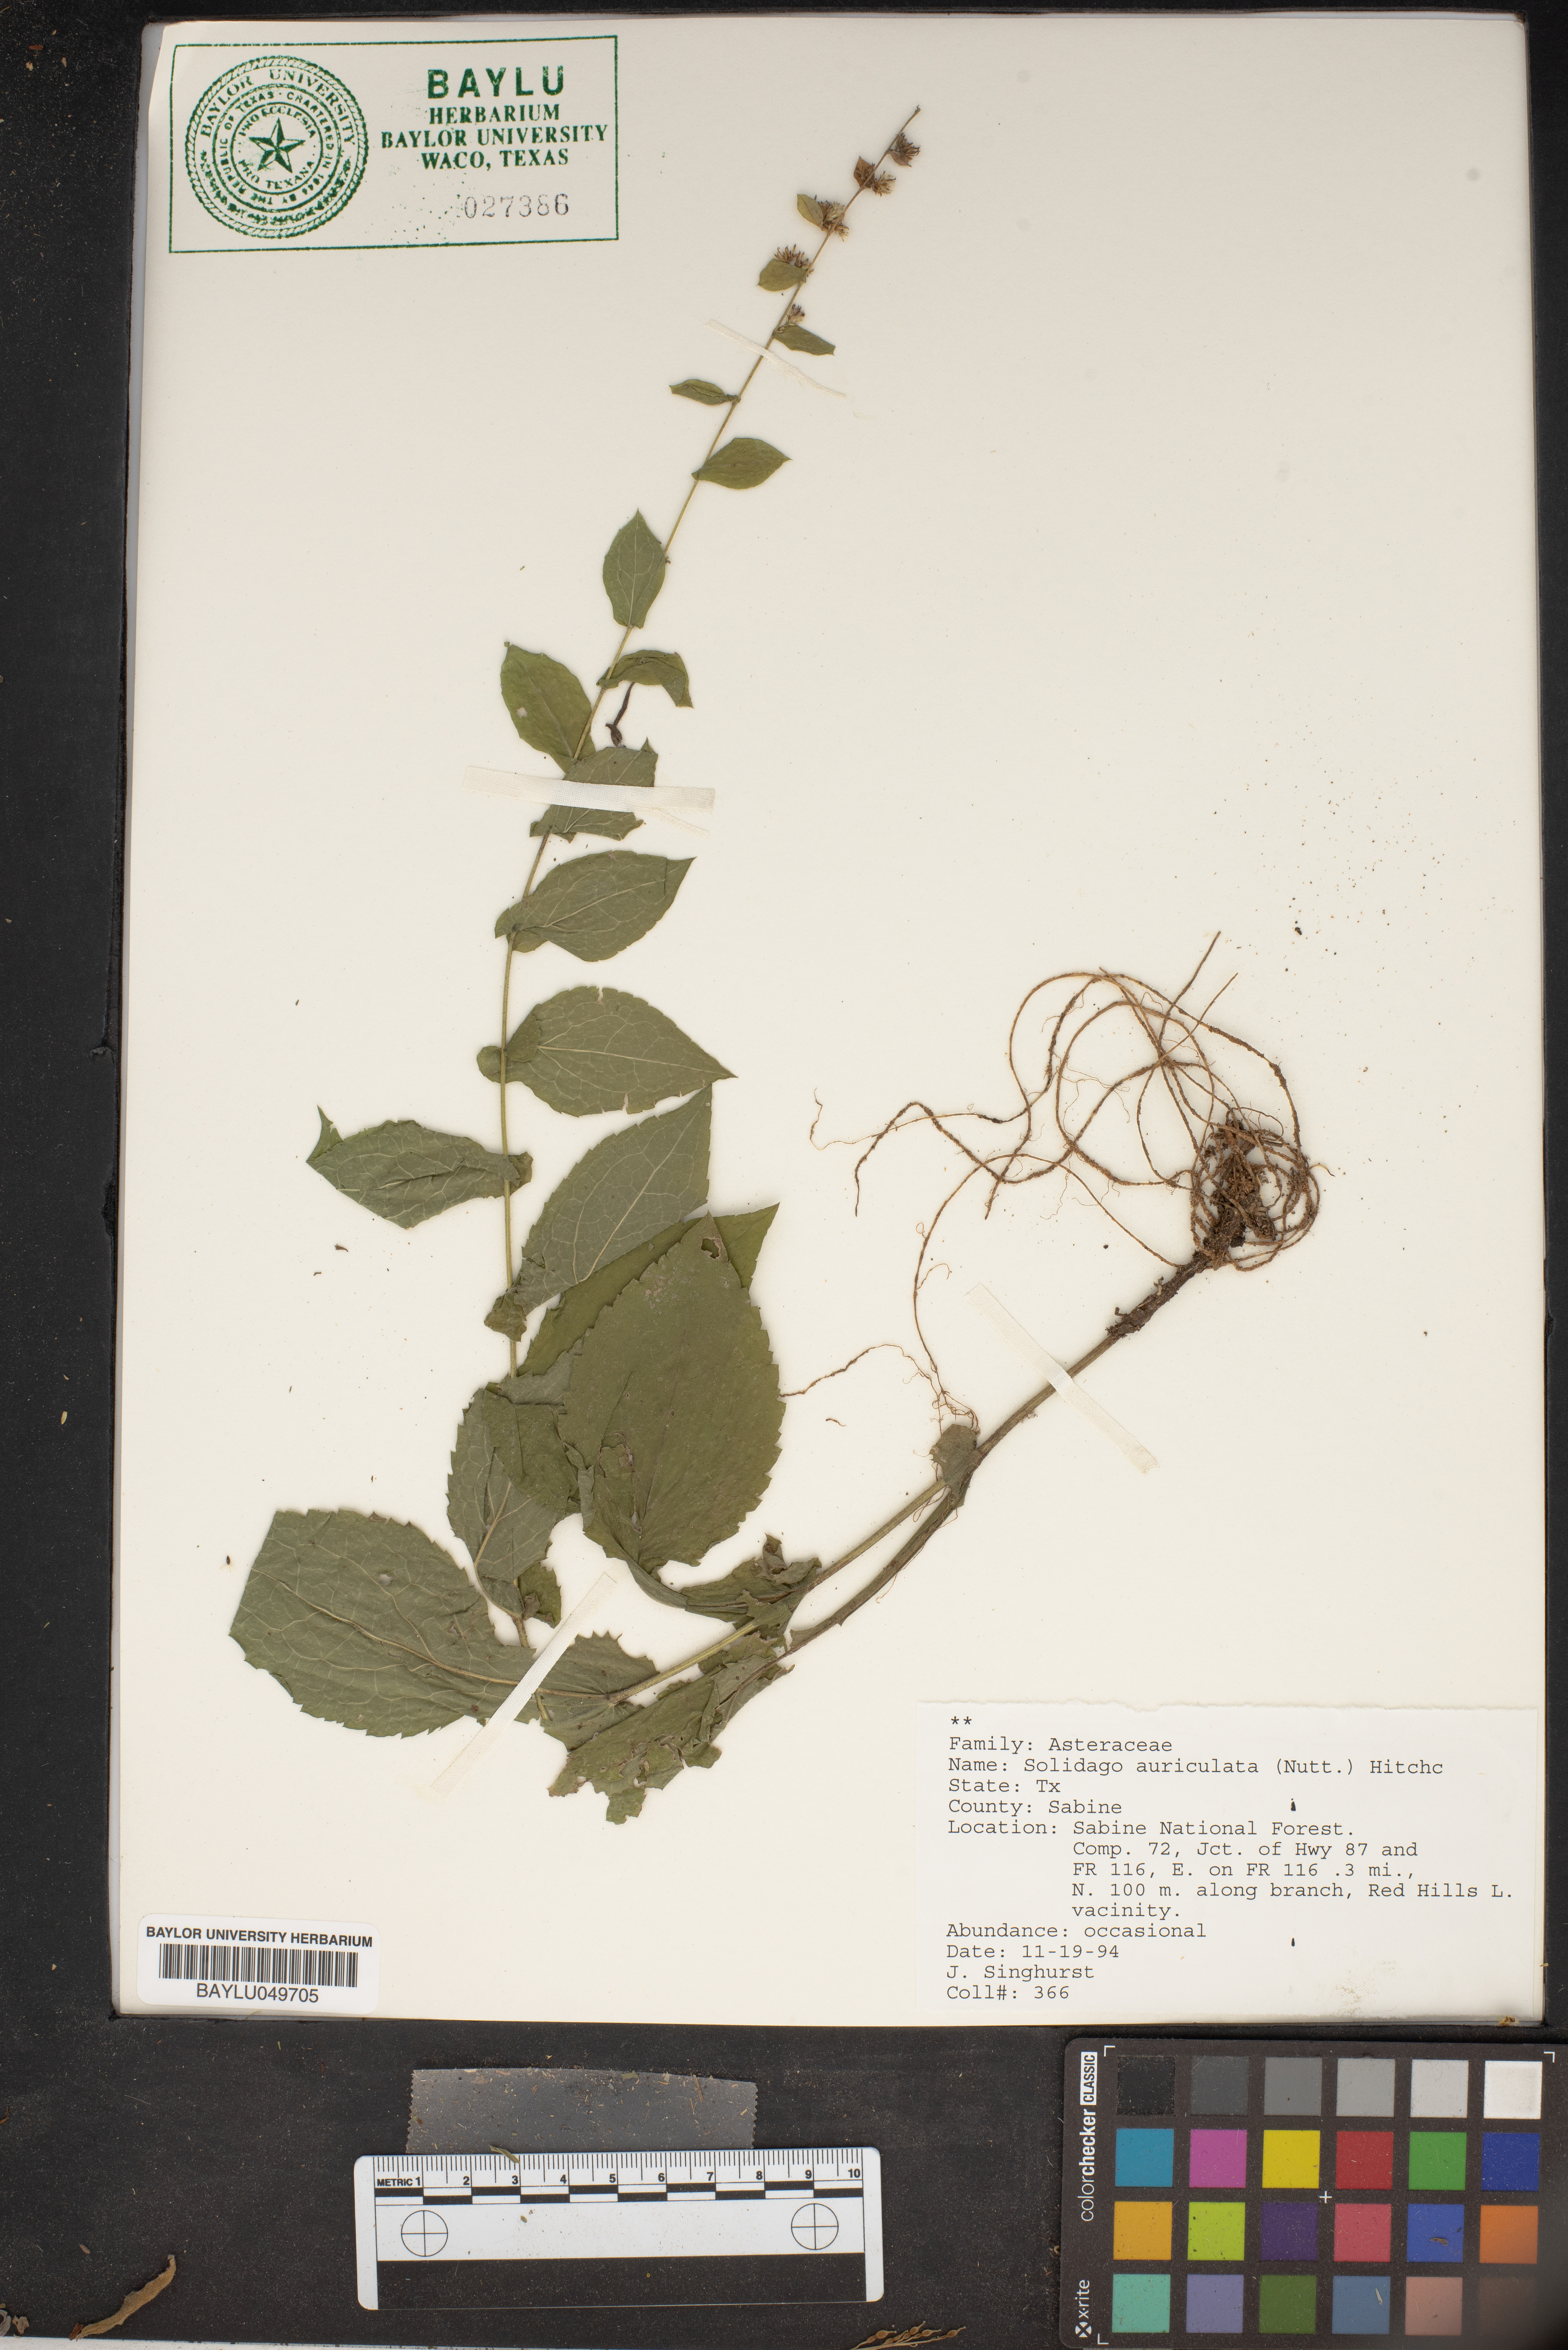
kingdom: Plantae
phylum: Tracheophyta
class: Magnoliopsida
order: Asterales
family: Asteraceae
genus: Solidago
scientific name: Solidago auriculata
